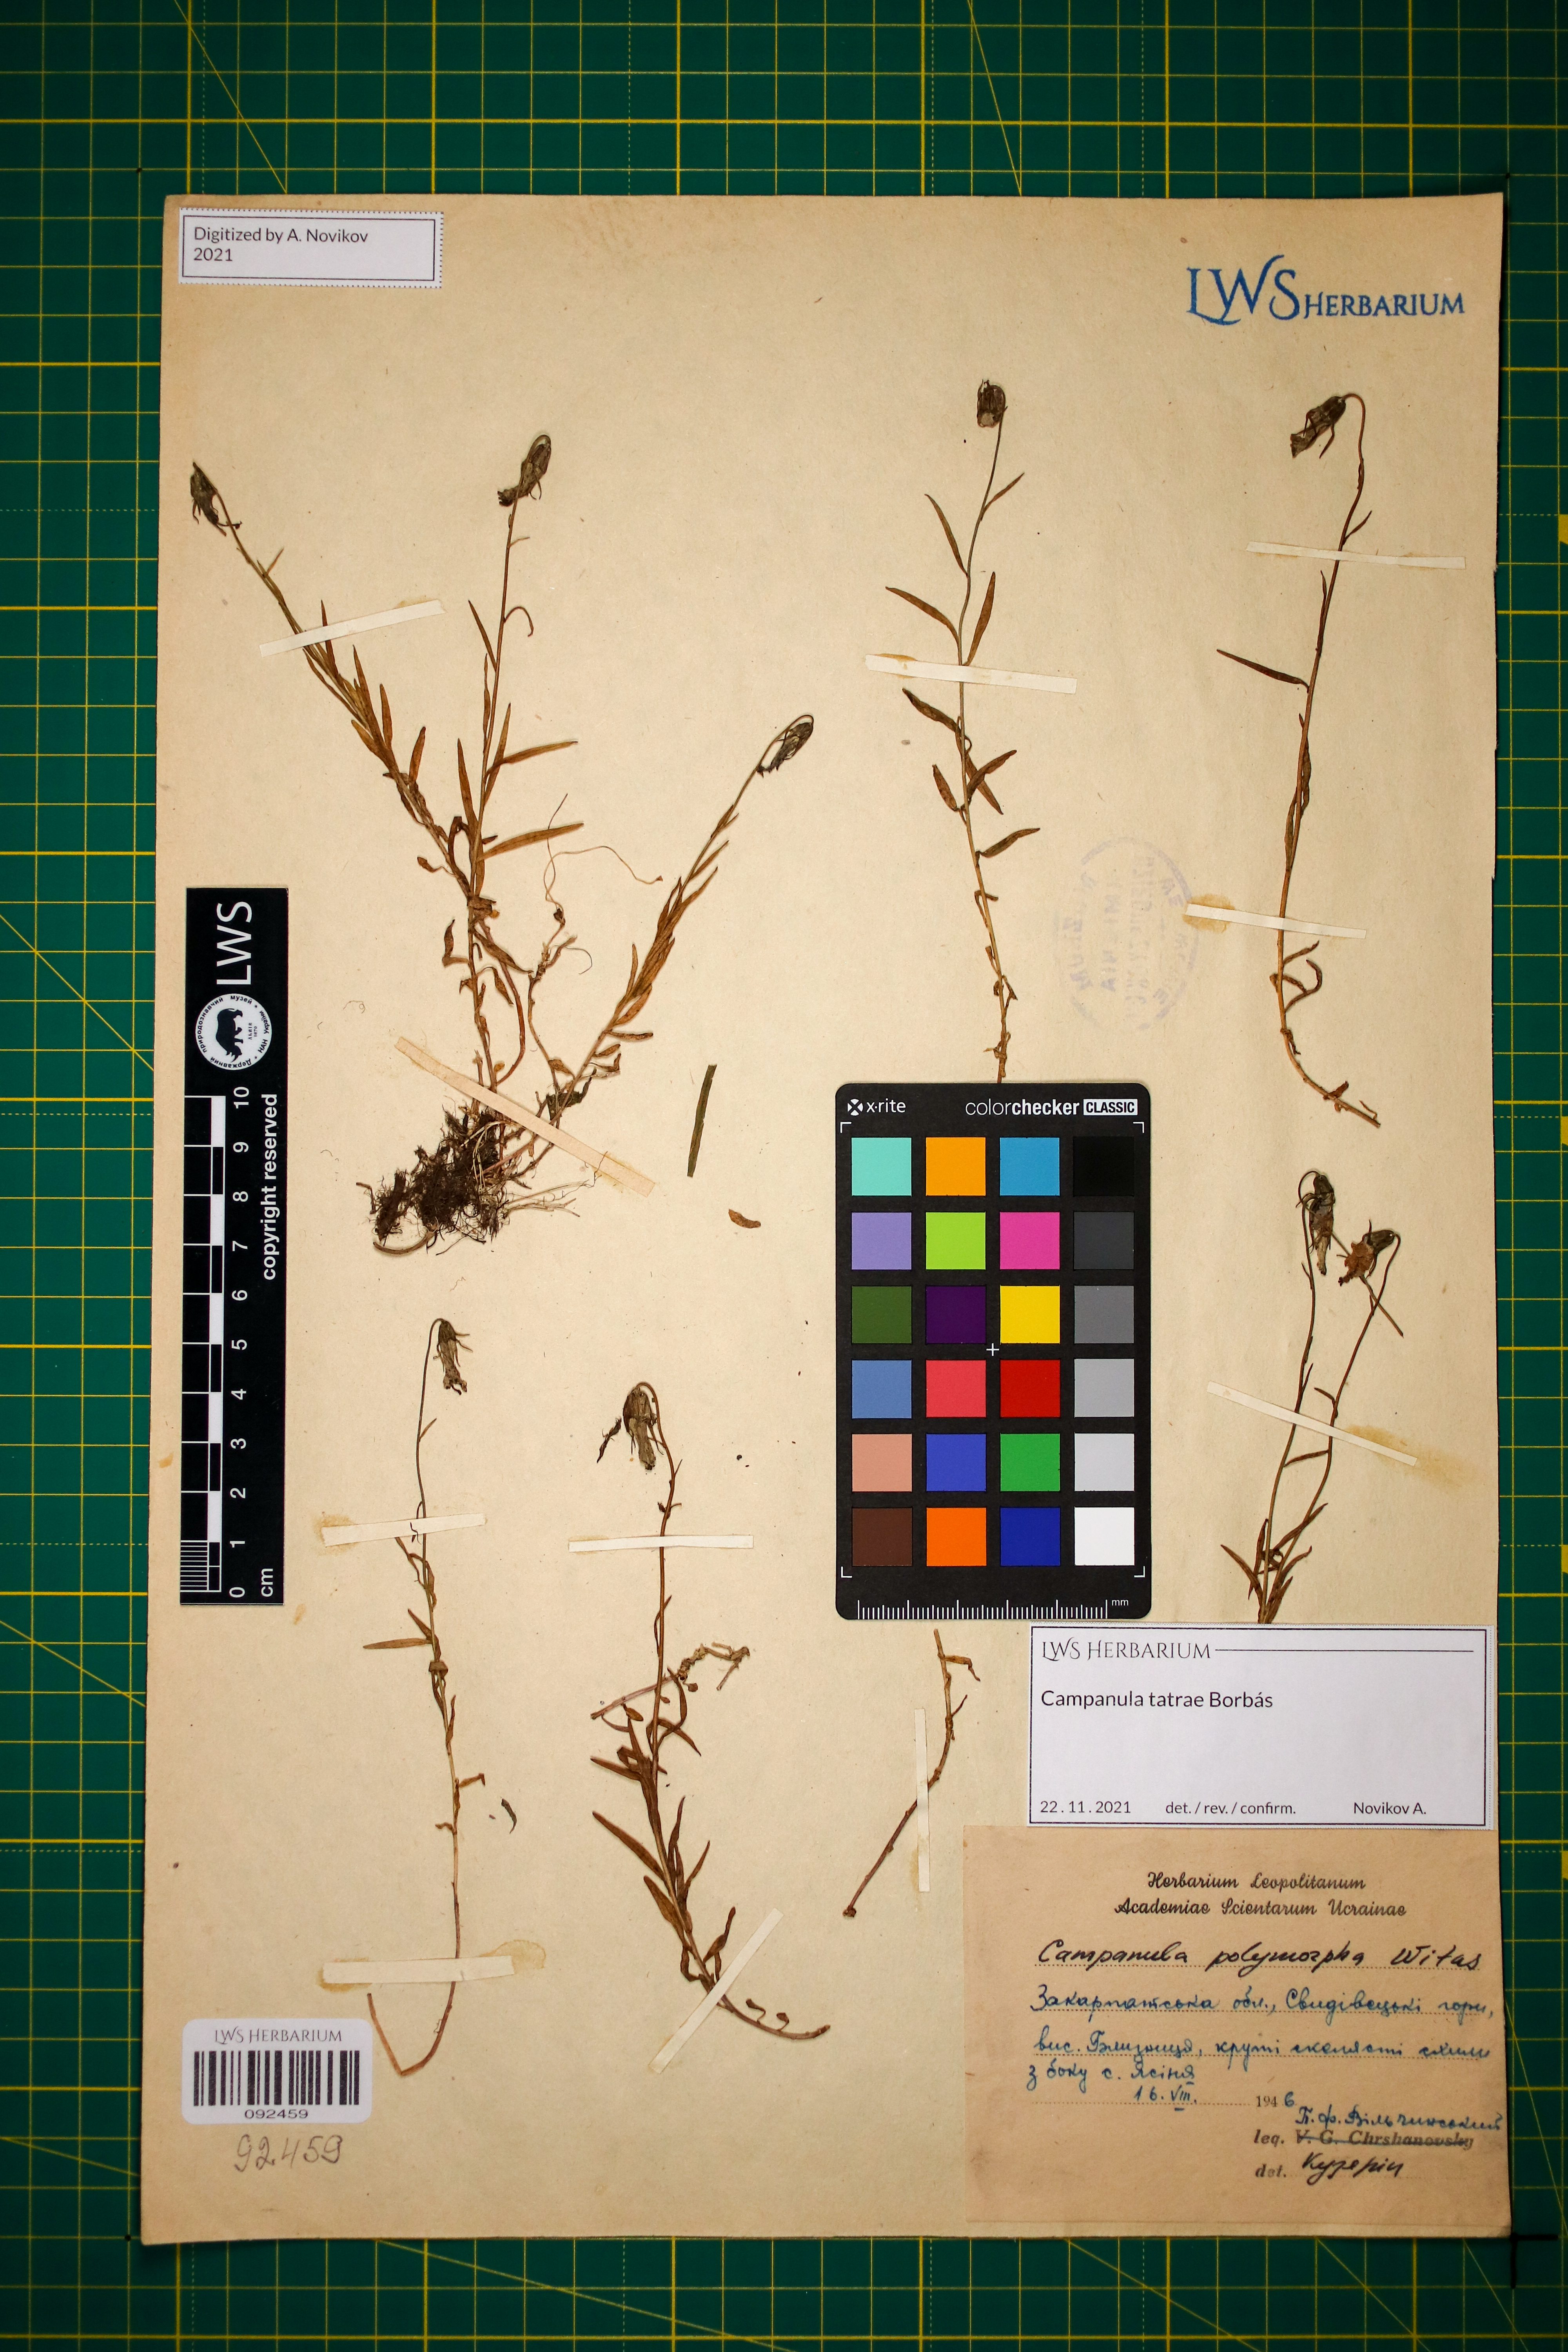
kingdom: Plantae
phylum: Tracheophyta
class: Magnoliopsida
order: Asterales
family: Campanulaceae
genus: Campanula
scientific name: Campanula tatrae
